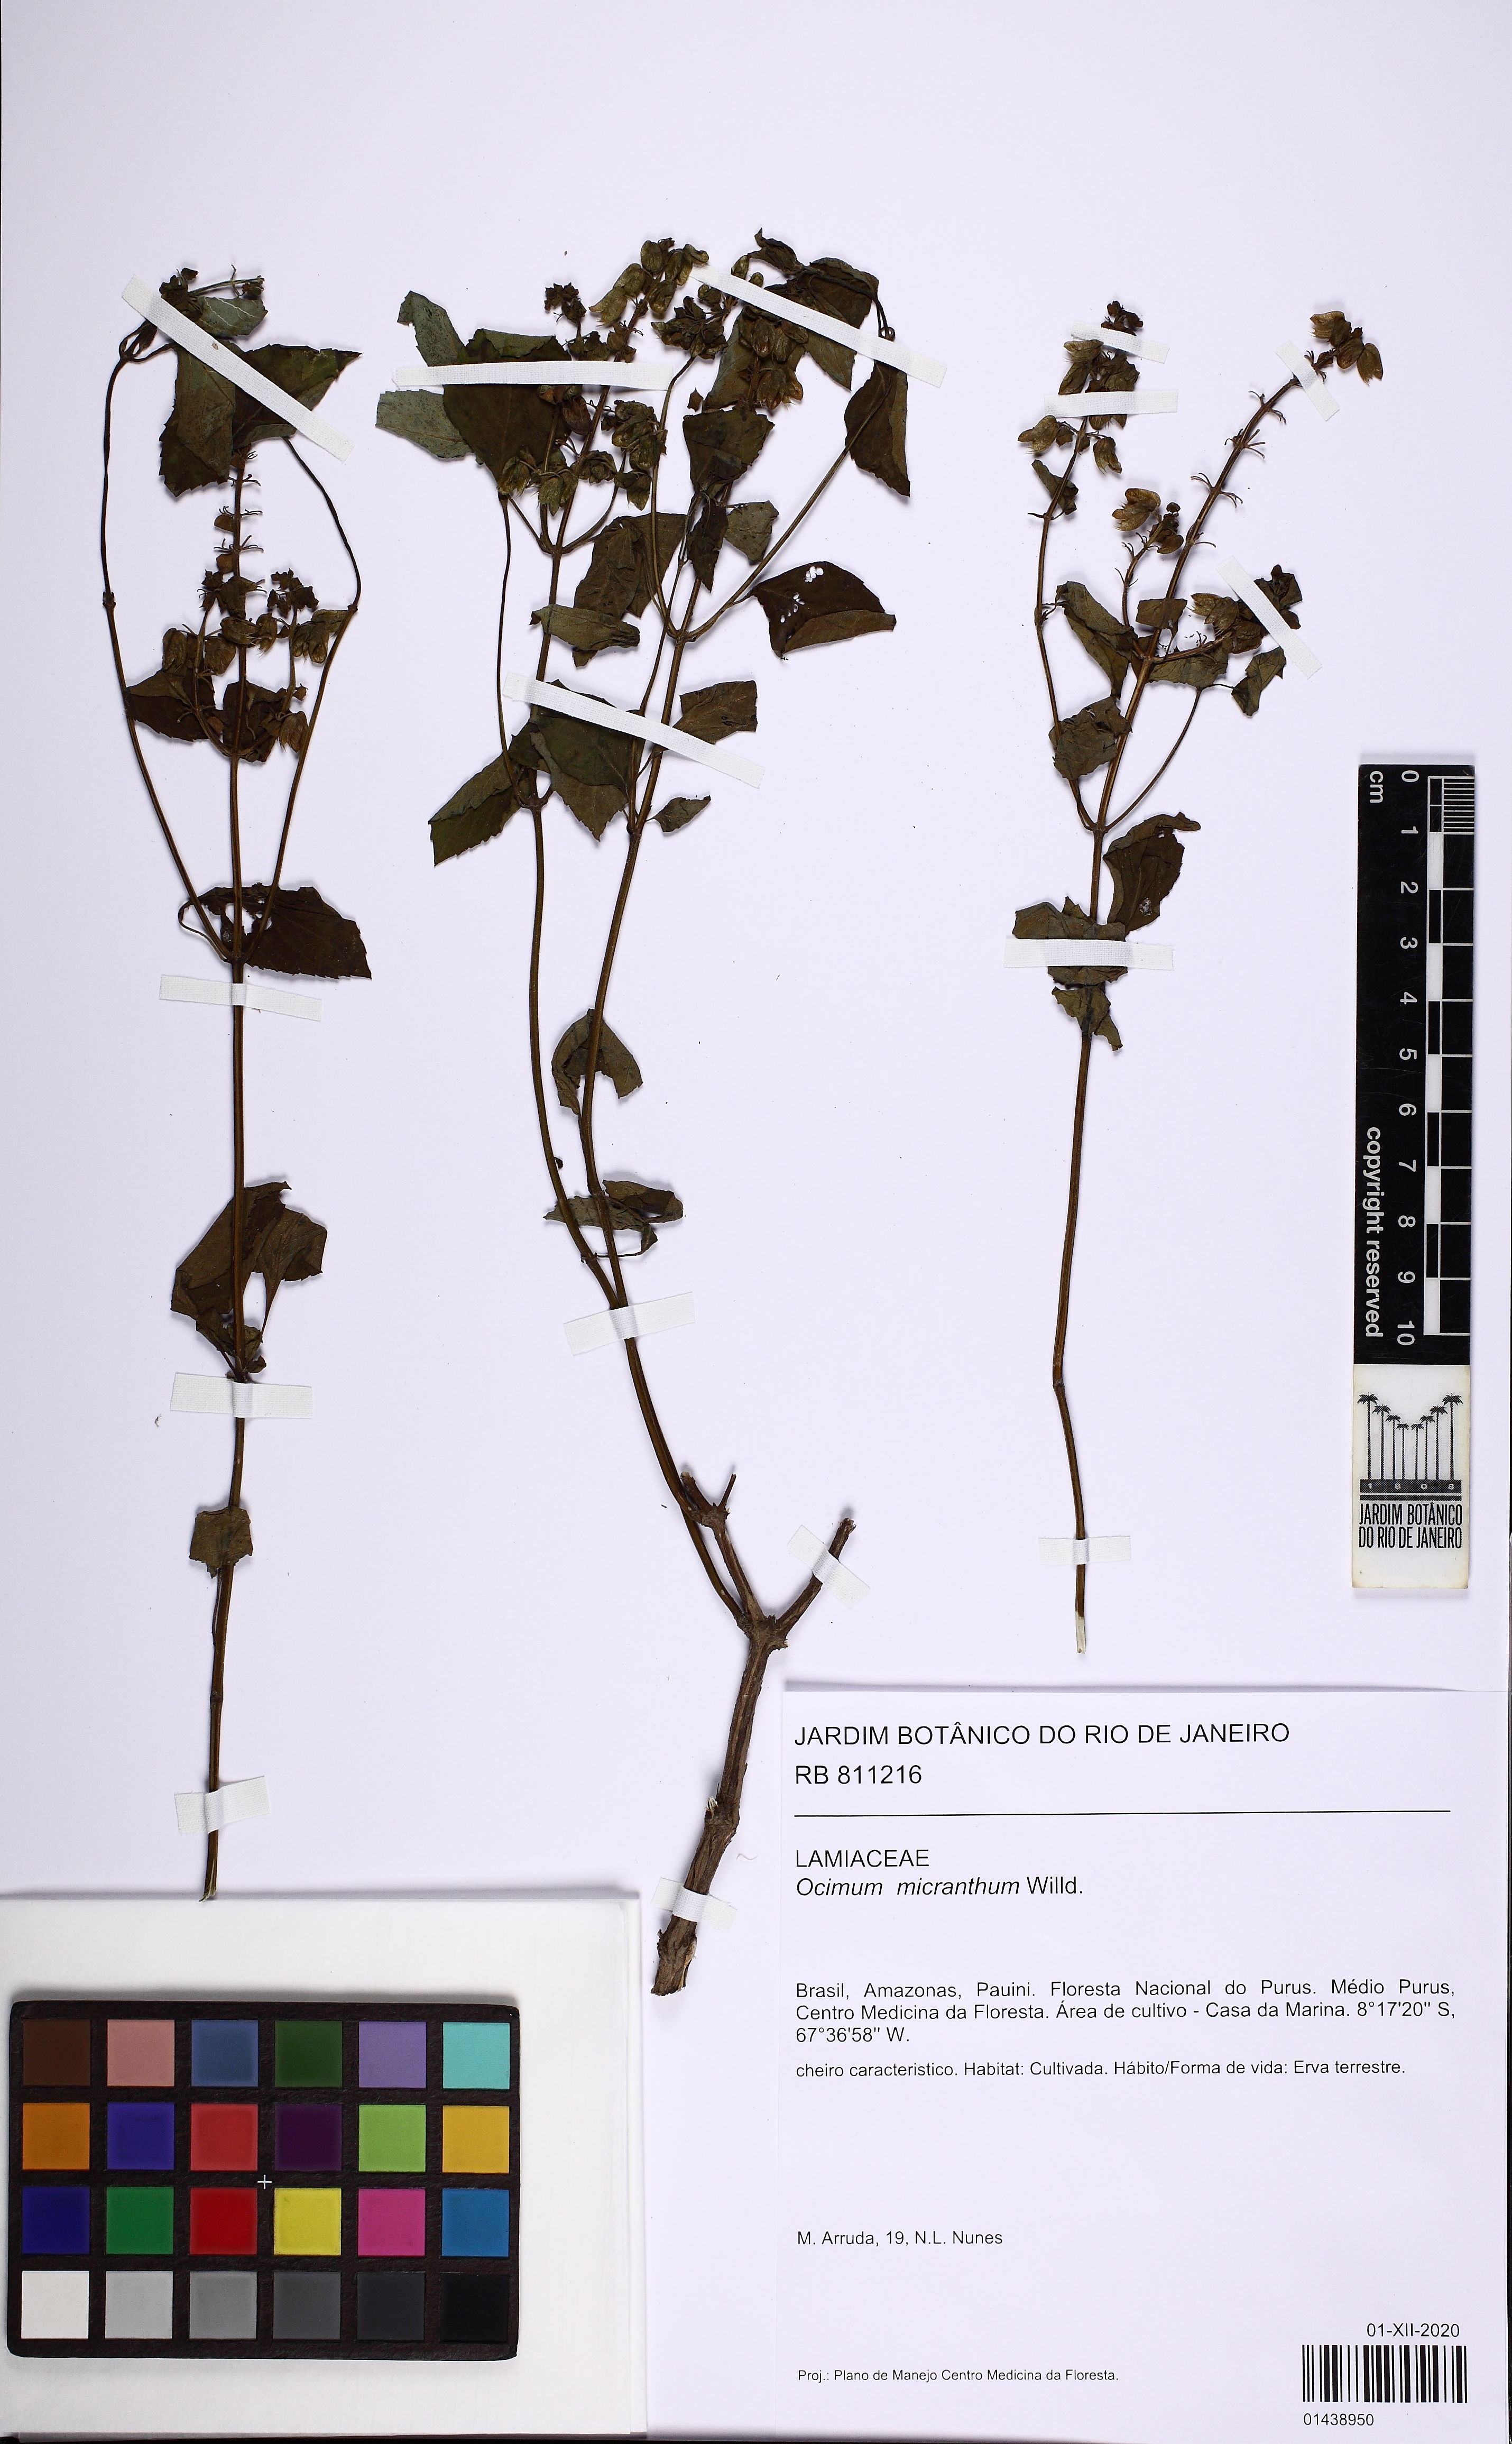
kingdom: Plantae
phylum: Tracheophyta
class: Magnoliopsida
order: Lamiales
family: Lamiaceae
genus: Ocimum
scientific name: Ocimum campechianum
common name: Mosquito basil
